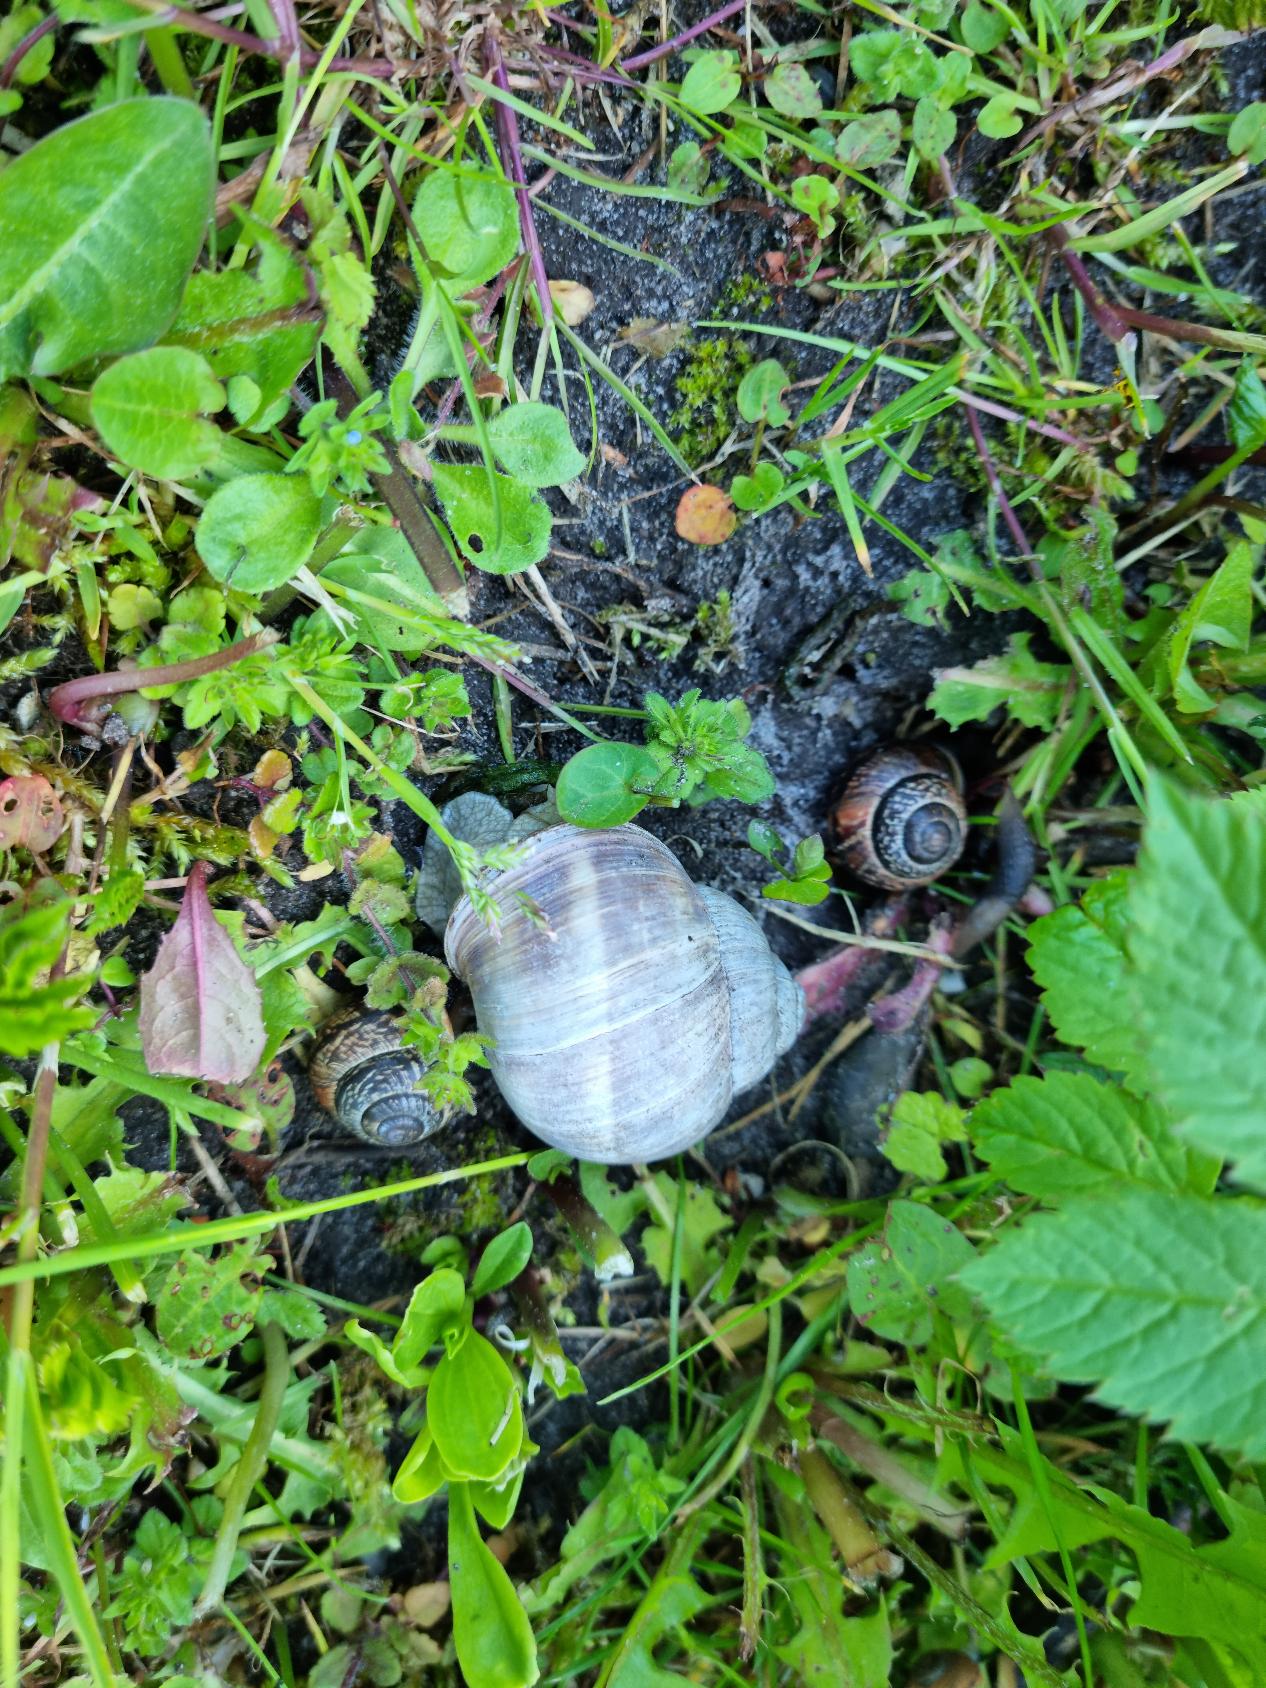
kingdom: Animalia
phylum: Mollusca
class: Gastropoda
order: Stylommatophora
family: Helicidae
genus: Helix
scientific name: Helix pomatia
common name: Vinbjergsnegl
